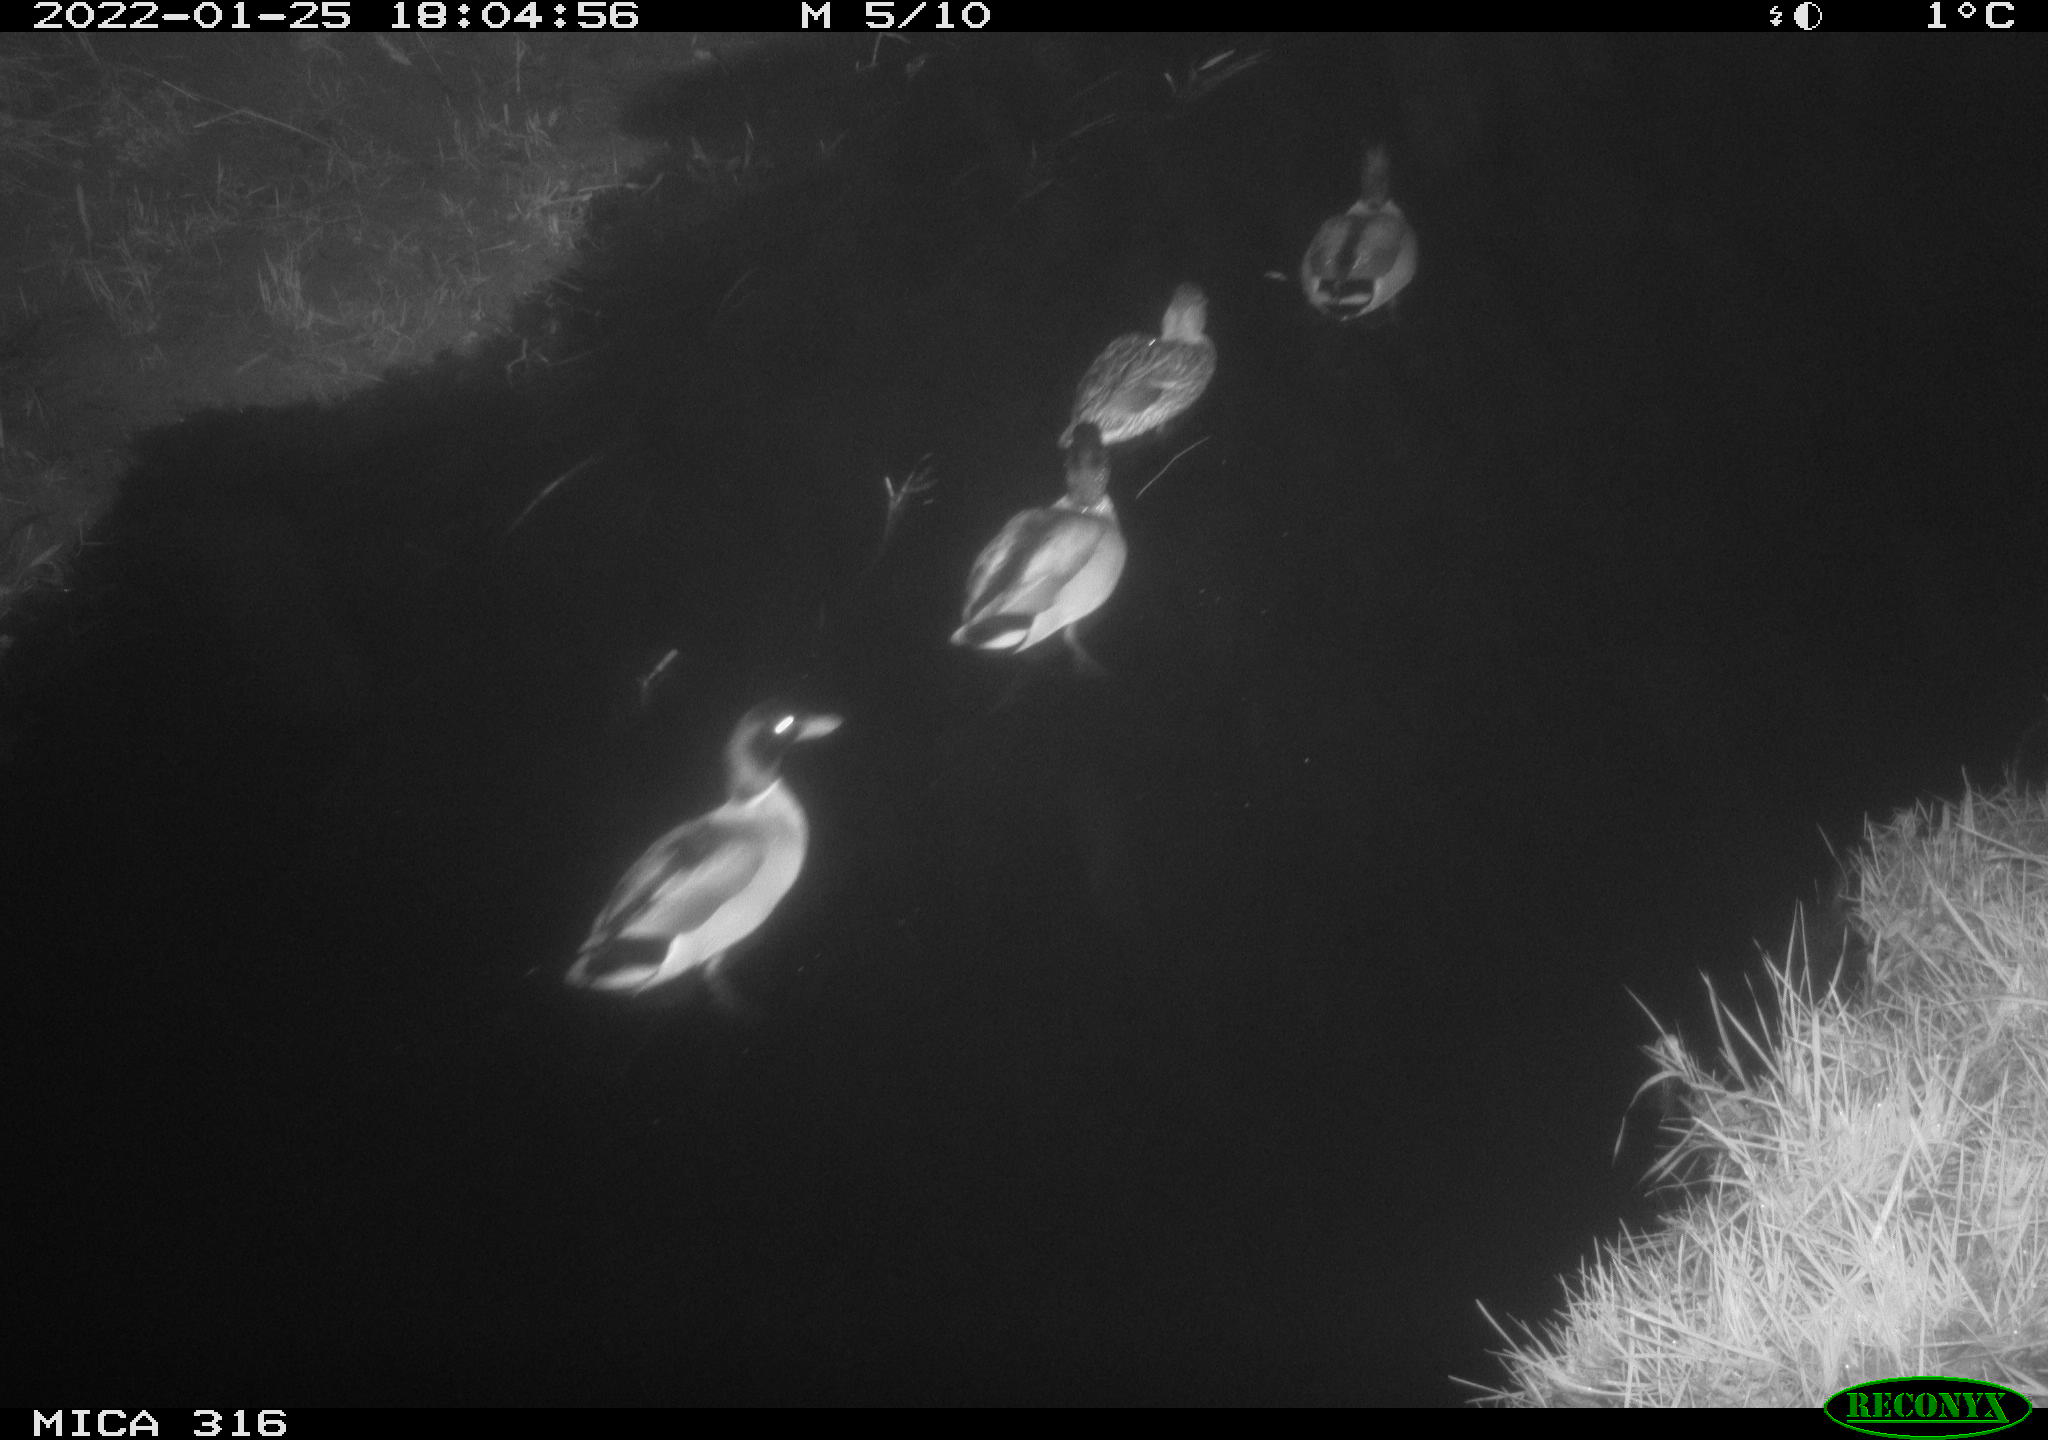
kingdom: Animalia
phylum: Chordata
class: Aves
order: Anseriformes
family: Anatidae
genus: Anas
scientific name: Anas platyrhynchos
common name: Mallard
